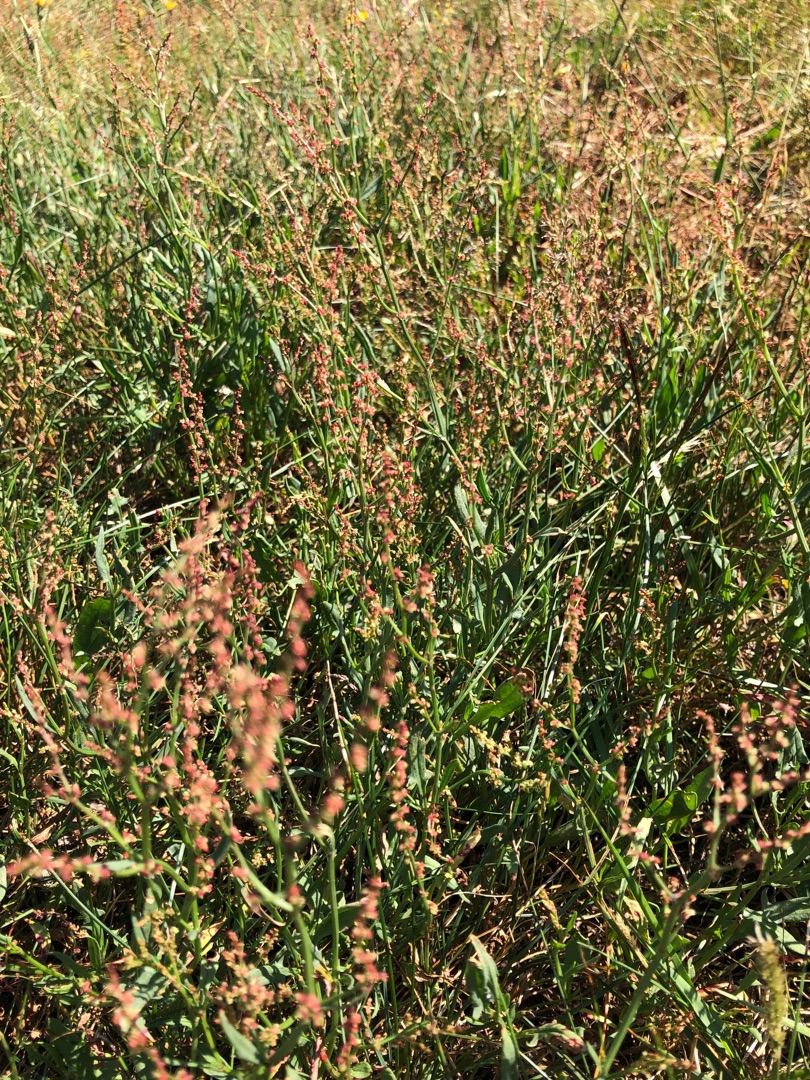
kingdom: Plantae
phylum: Tracheophyta
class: Magnoliopsida
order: Caryophyllales
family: Polygonaceae
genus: Rumex
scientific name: Rumex acetosella
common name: Rødknæ
